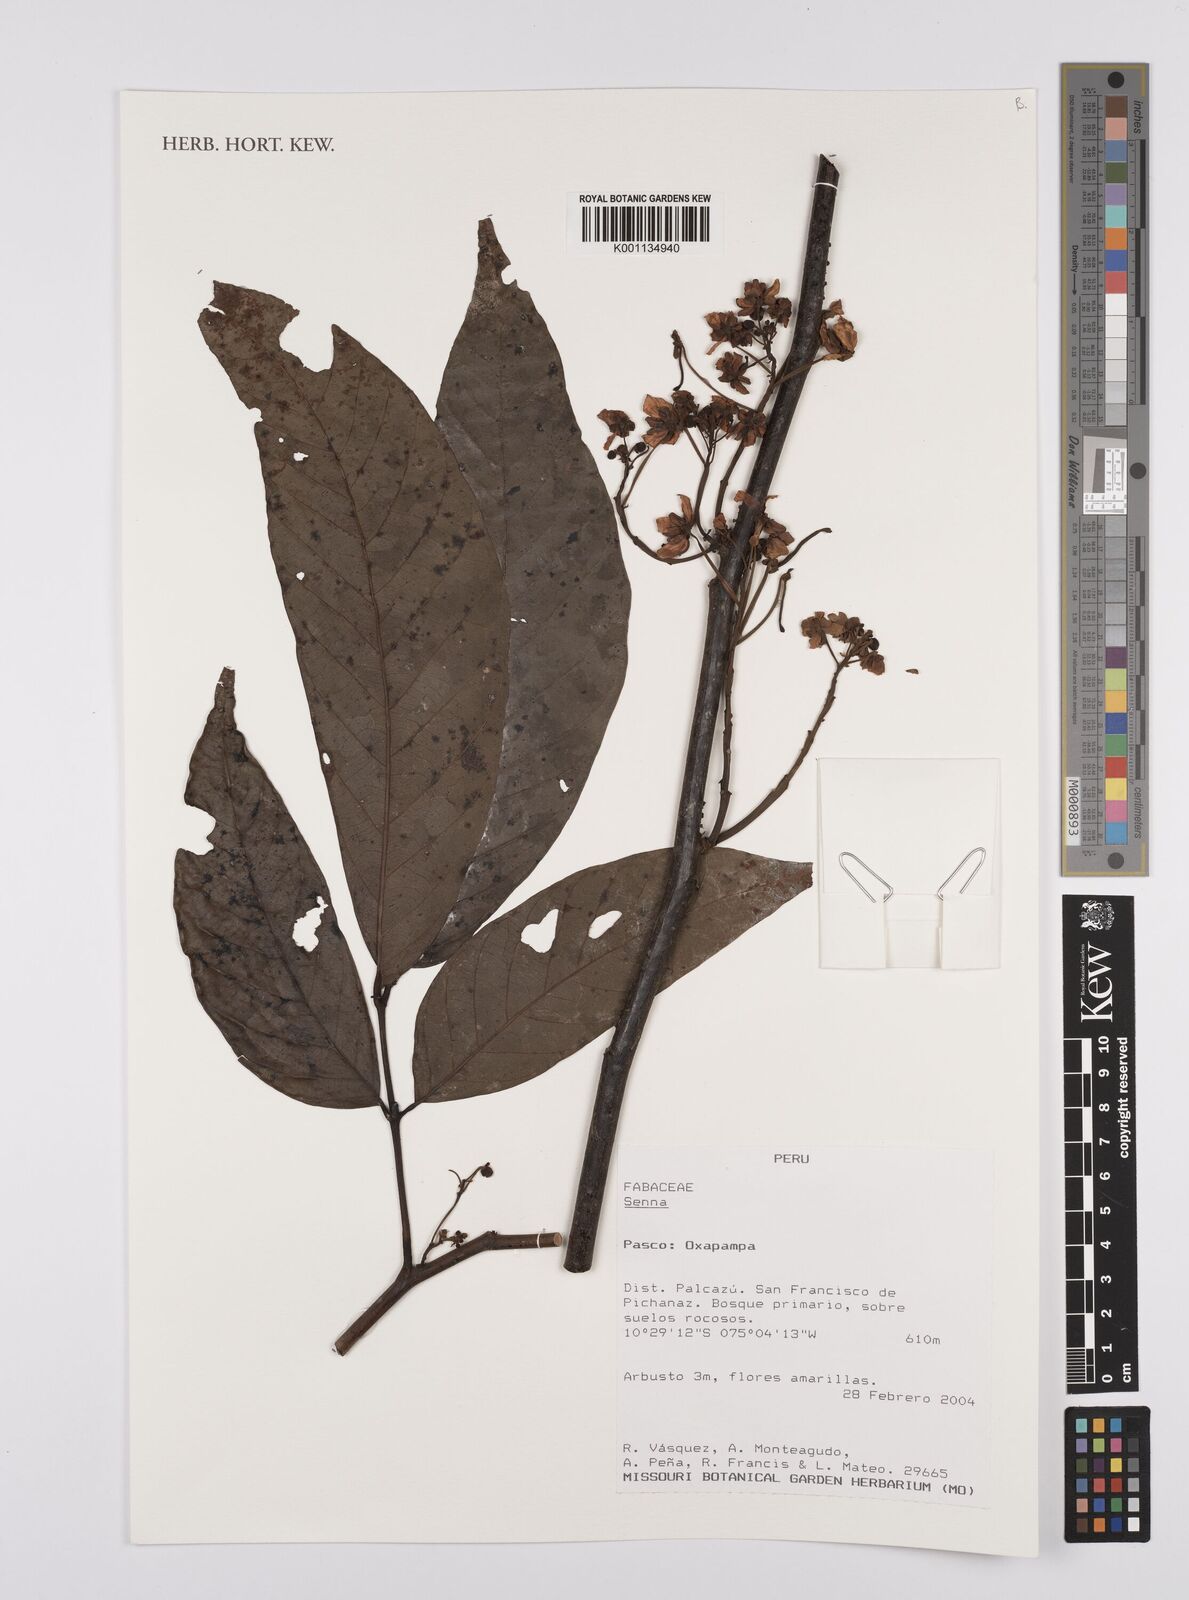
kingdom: Plantae
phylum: Tracheophyta
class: Magnoliopsida
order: Fabales
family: Fabaceae
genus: Senna
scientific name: Senna
